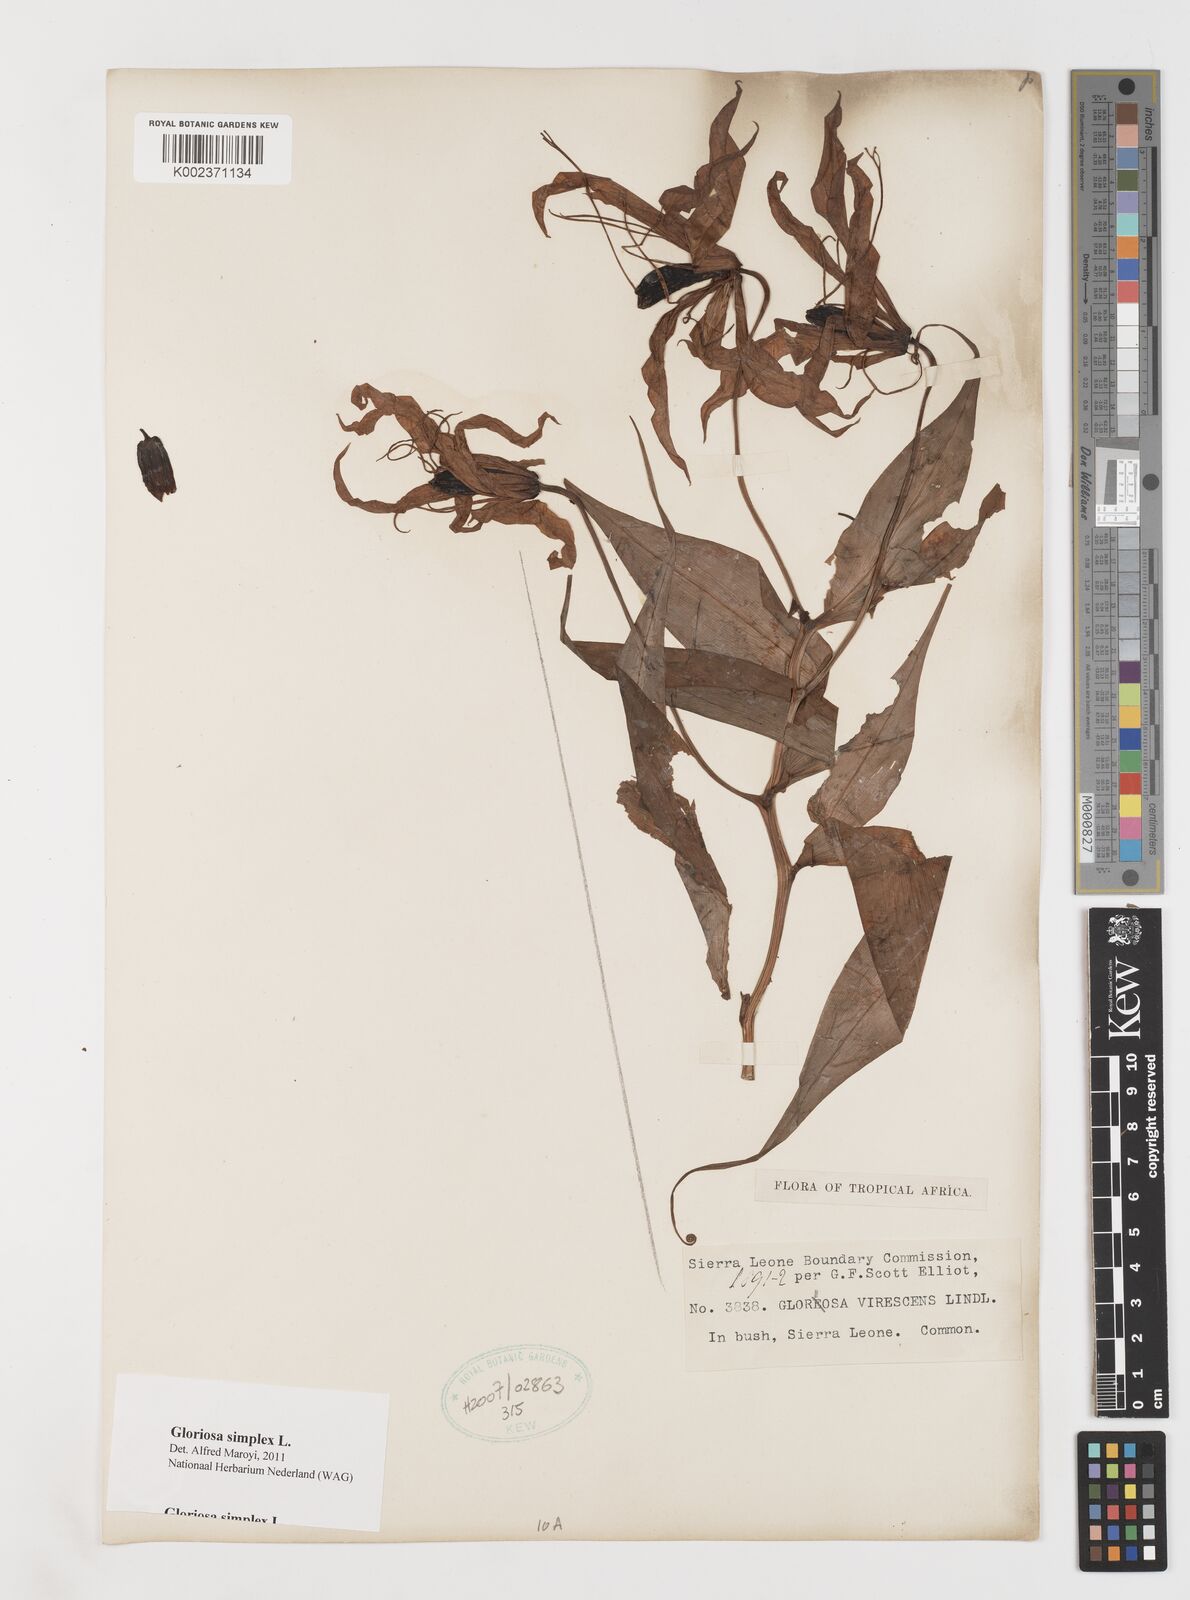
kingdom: Plantae
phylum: Tracheophyta
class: Liliopsida
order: Liliales
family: Colchicaceae
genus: Gloriosa
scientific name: Gloriosa simplex
